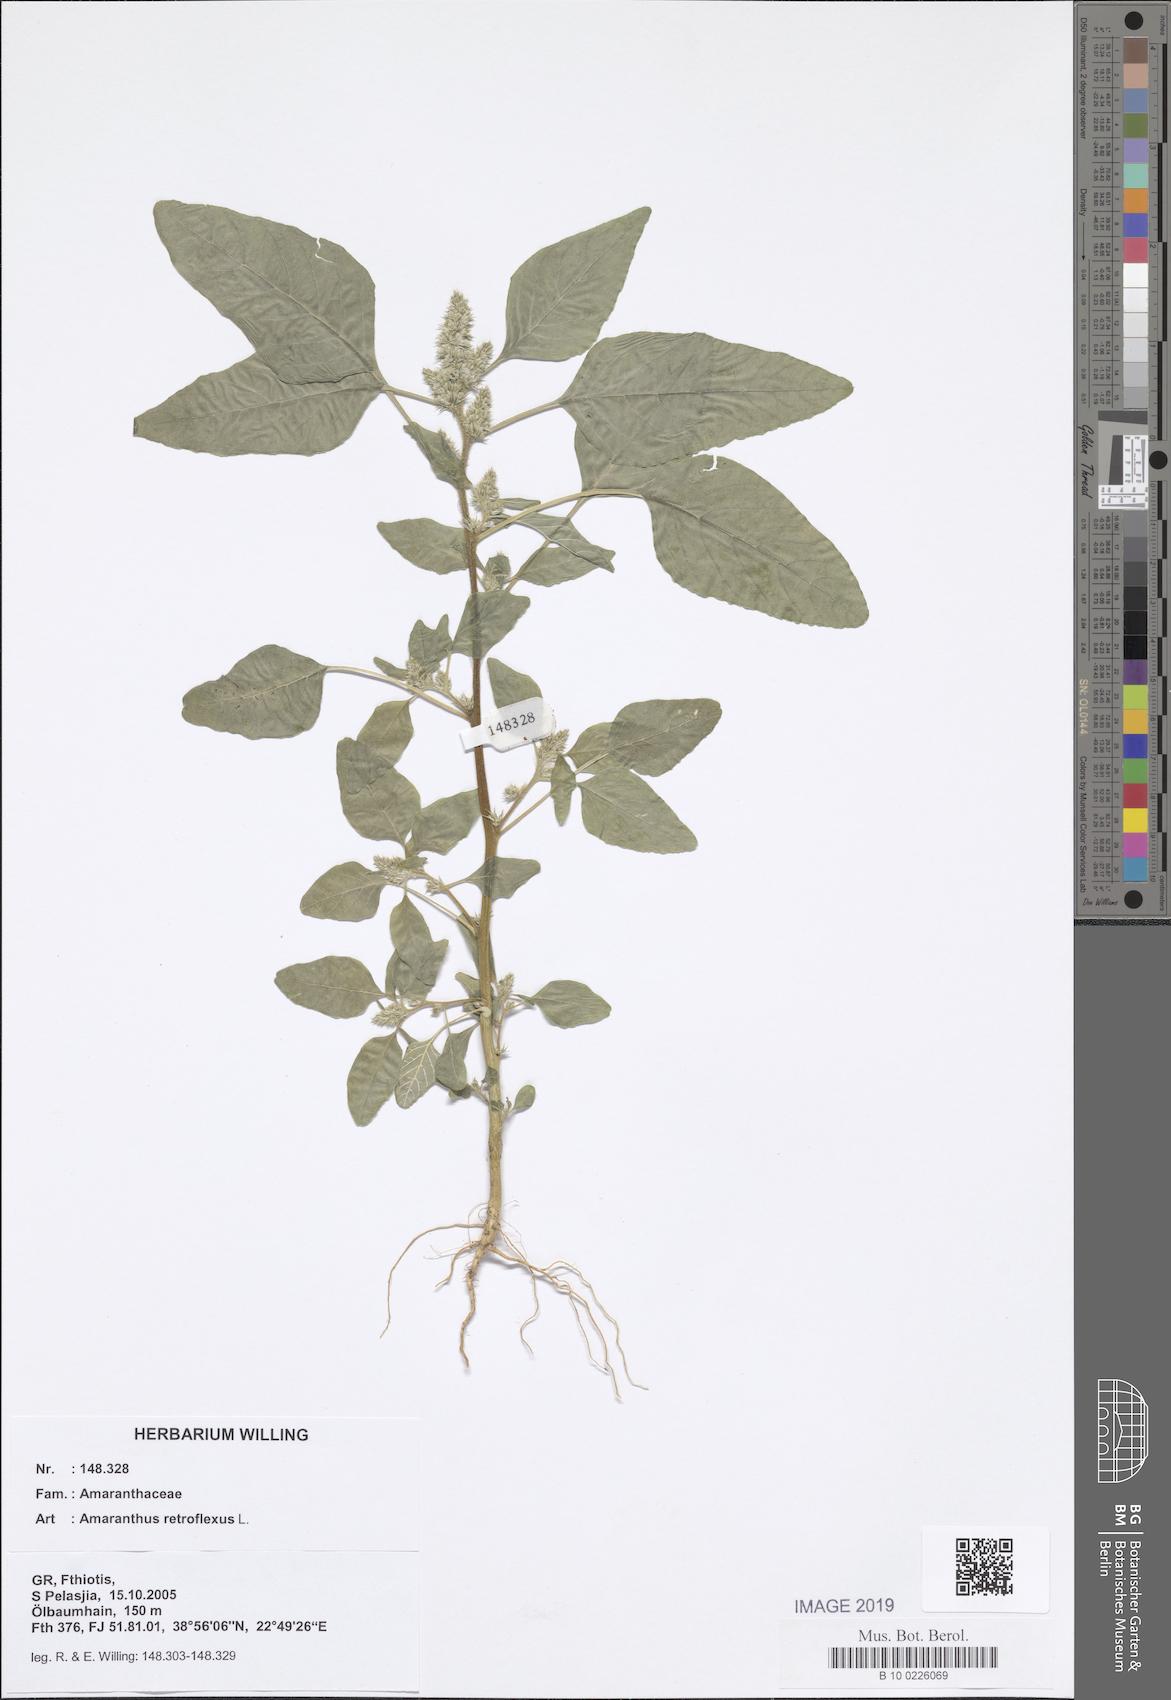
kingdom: Plantae
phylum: Tracheophyta
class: Magnoliopsida
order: Caryophyllales
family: Amaranthaceae
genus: Amaranthus
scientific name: Amaranthus retroflexus
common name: Redroot amaranth
